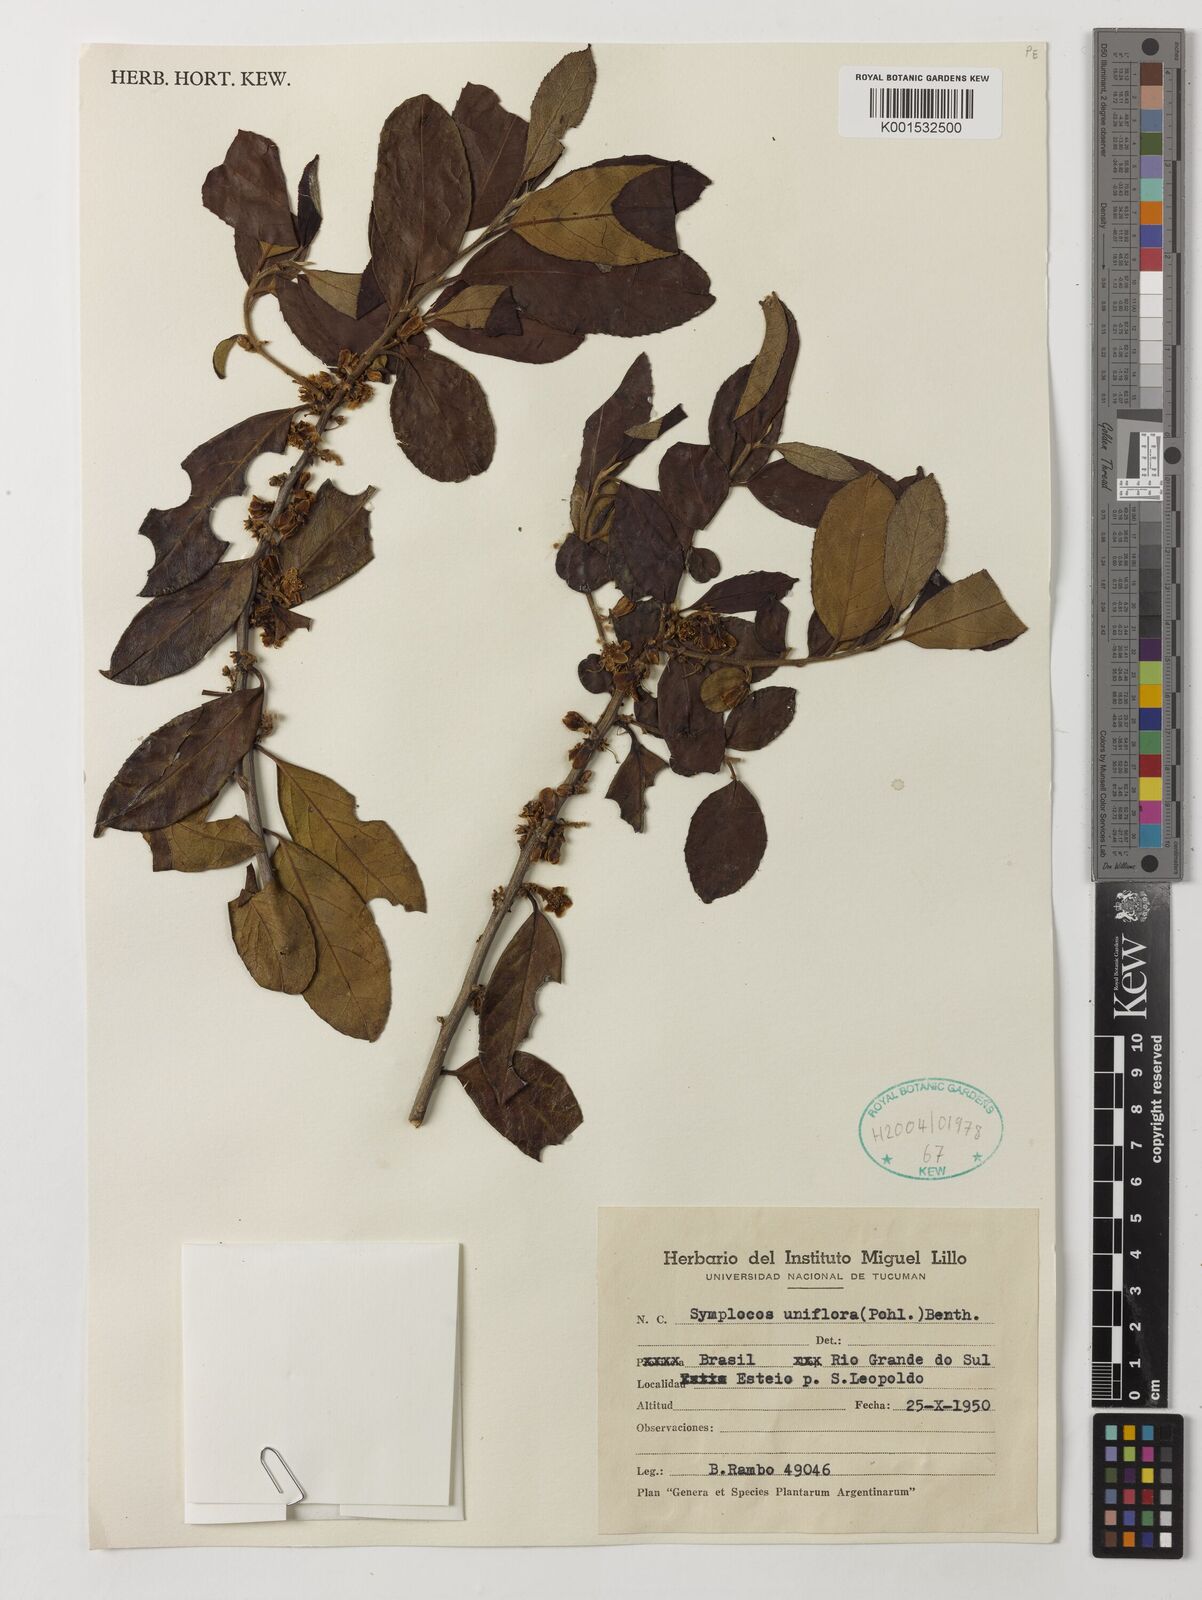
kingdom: Plantae
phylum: Tracheophyta
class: Magnoliopsida
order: Ericales
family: Symplocaceae
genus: Symplocos
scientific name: Symplocos uniflora
